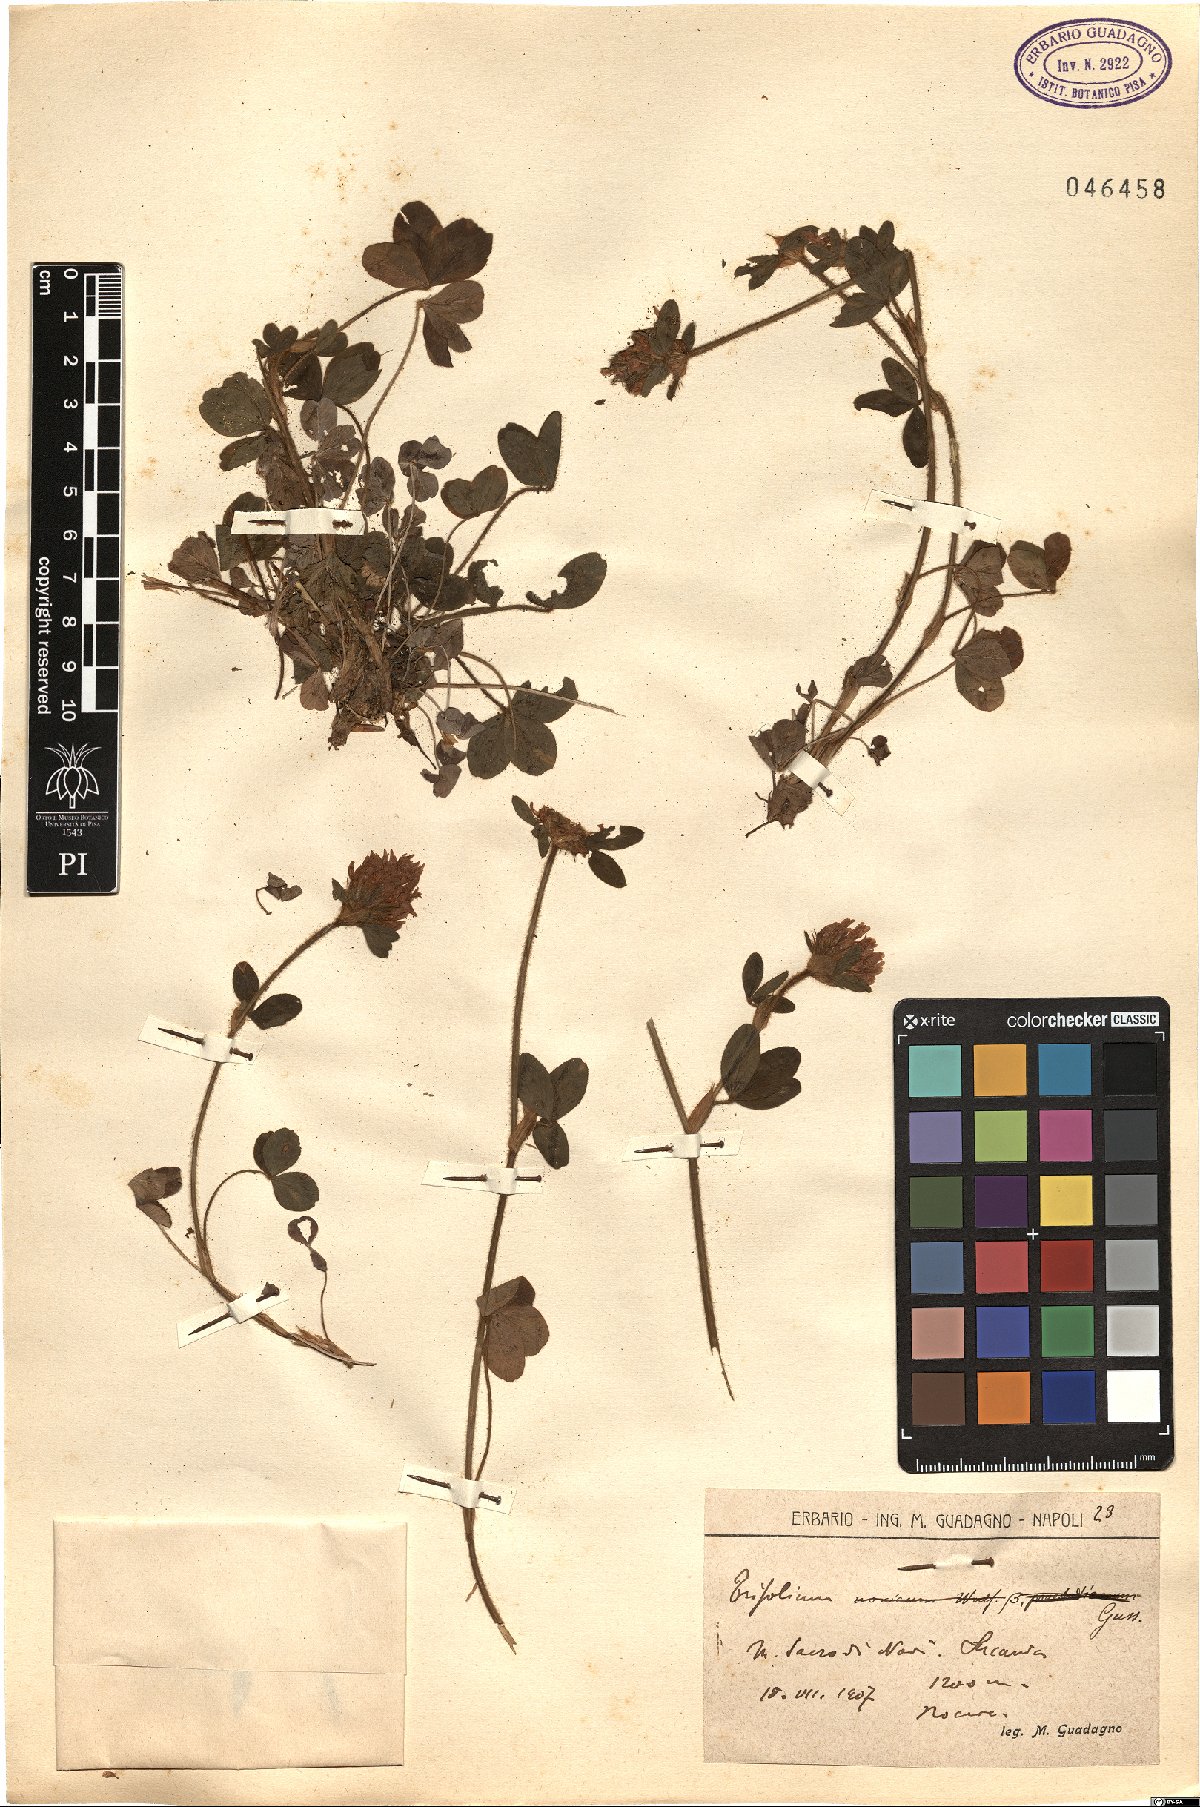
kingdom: Plantae
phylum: Tracheophyta
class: Magnoliopsida
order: Fabales
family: Fabaceae
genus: Trifolium
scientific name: Trifolium
